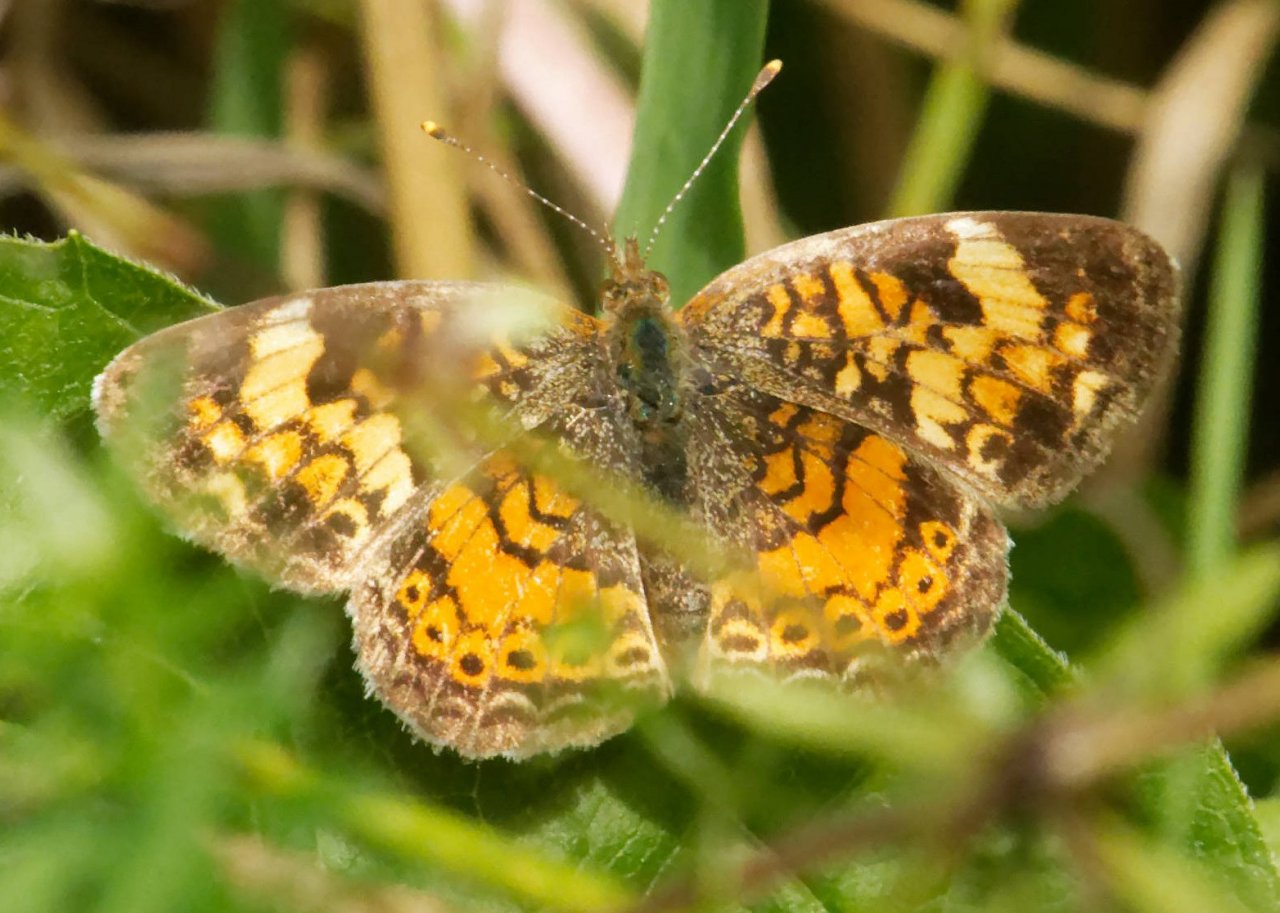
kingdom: Animalia
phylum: Arthropoda
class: Insecta
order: Lepidoptera
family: Nymphalidae
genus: Phyciodes
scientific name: Phyciodes
